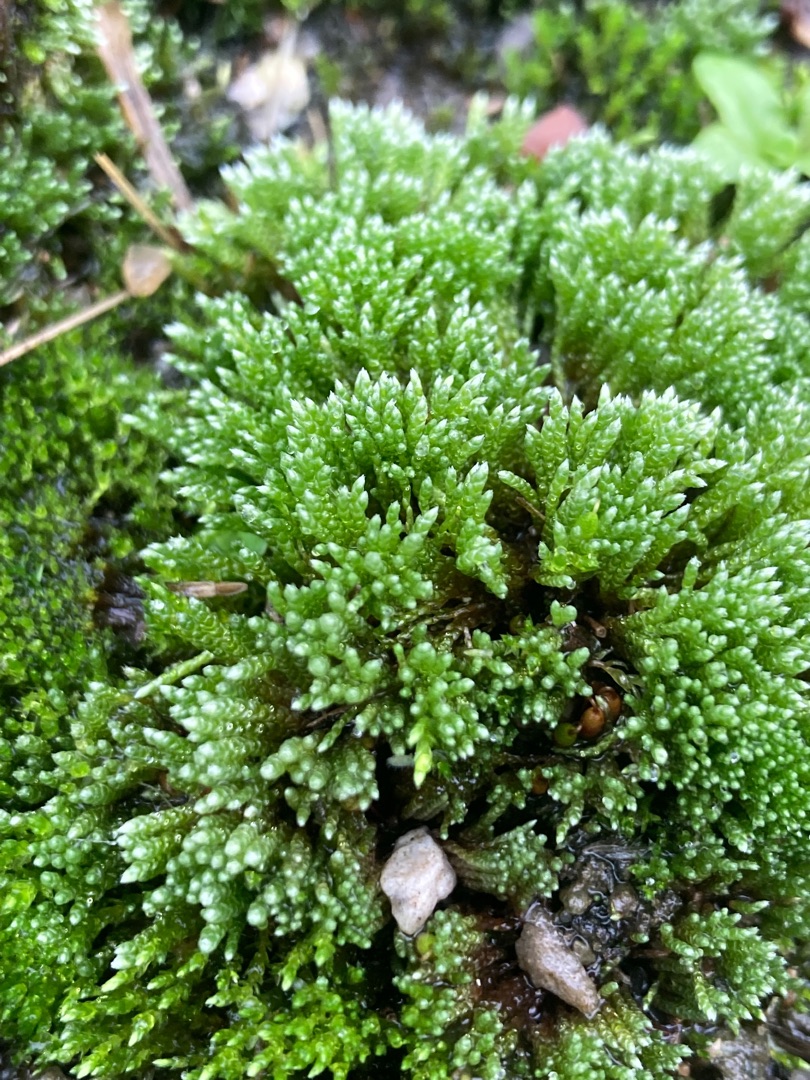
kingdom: Plantae
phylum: Bryophyta
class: Bryopsida
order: Bryales
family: Bryaceae
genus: Bryum
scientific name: Bryum argenteum
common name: Sølv-bryum
